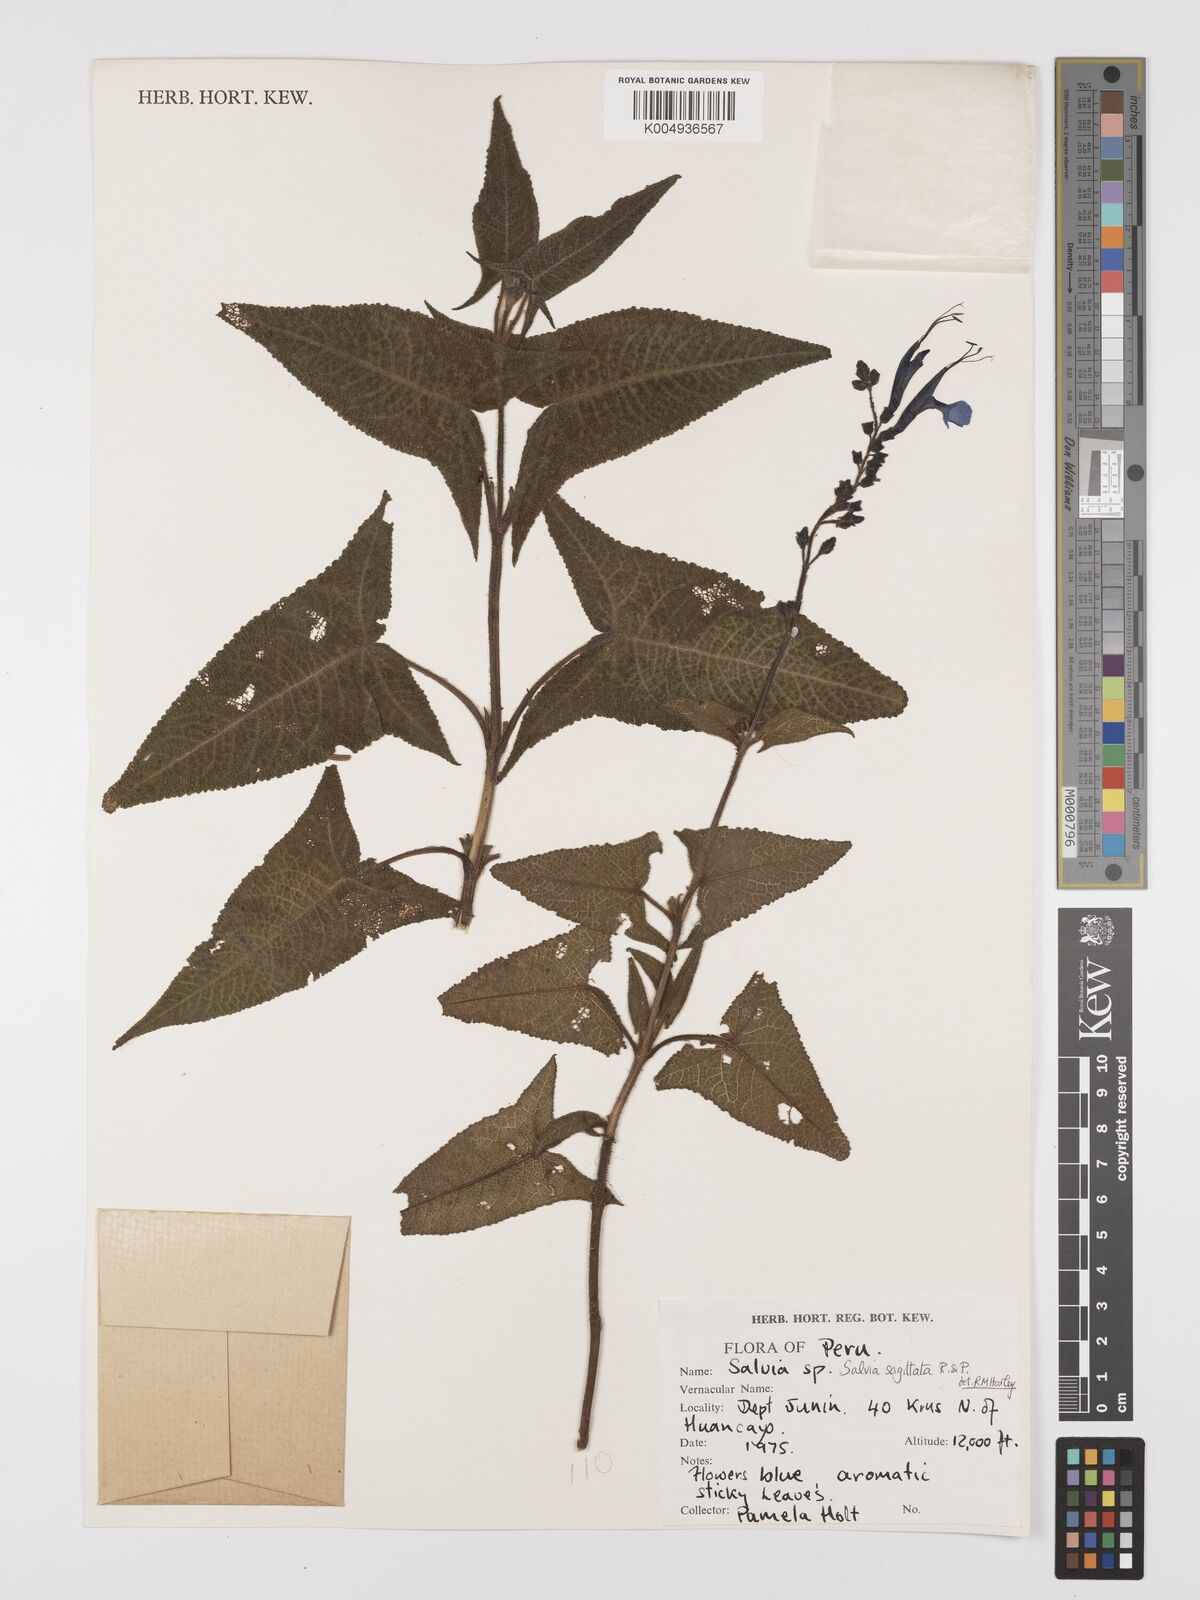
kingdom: Plantae
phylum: Tracheophyta
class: Magnoliopsida
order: Lamiales
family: Lamiaceae
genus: Salvia
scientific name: Salvia sagittata
